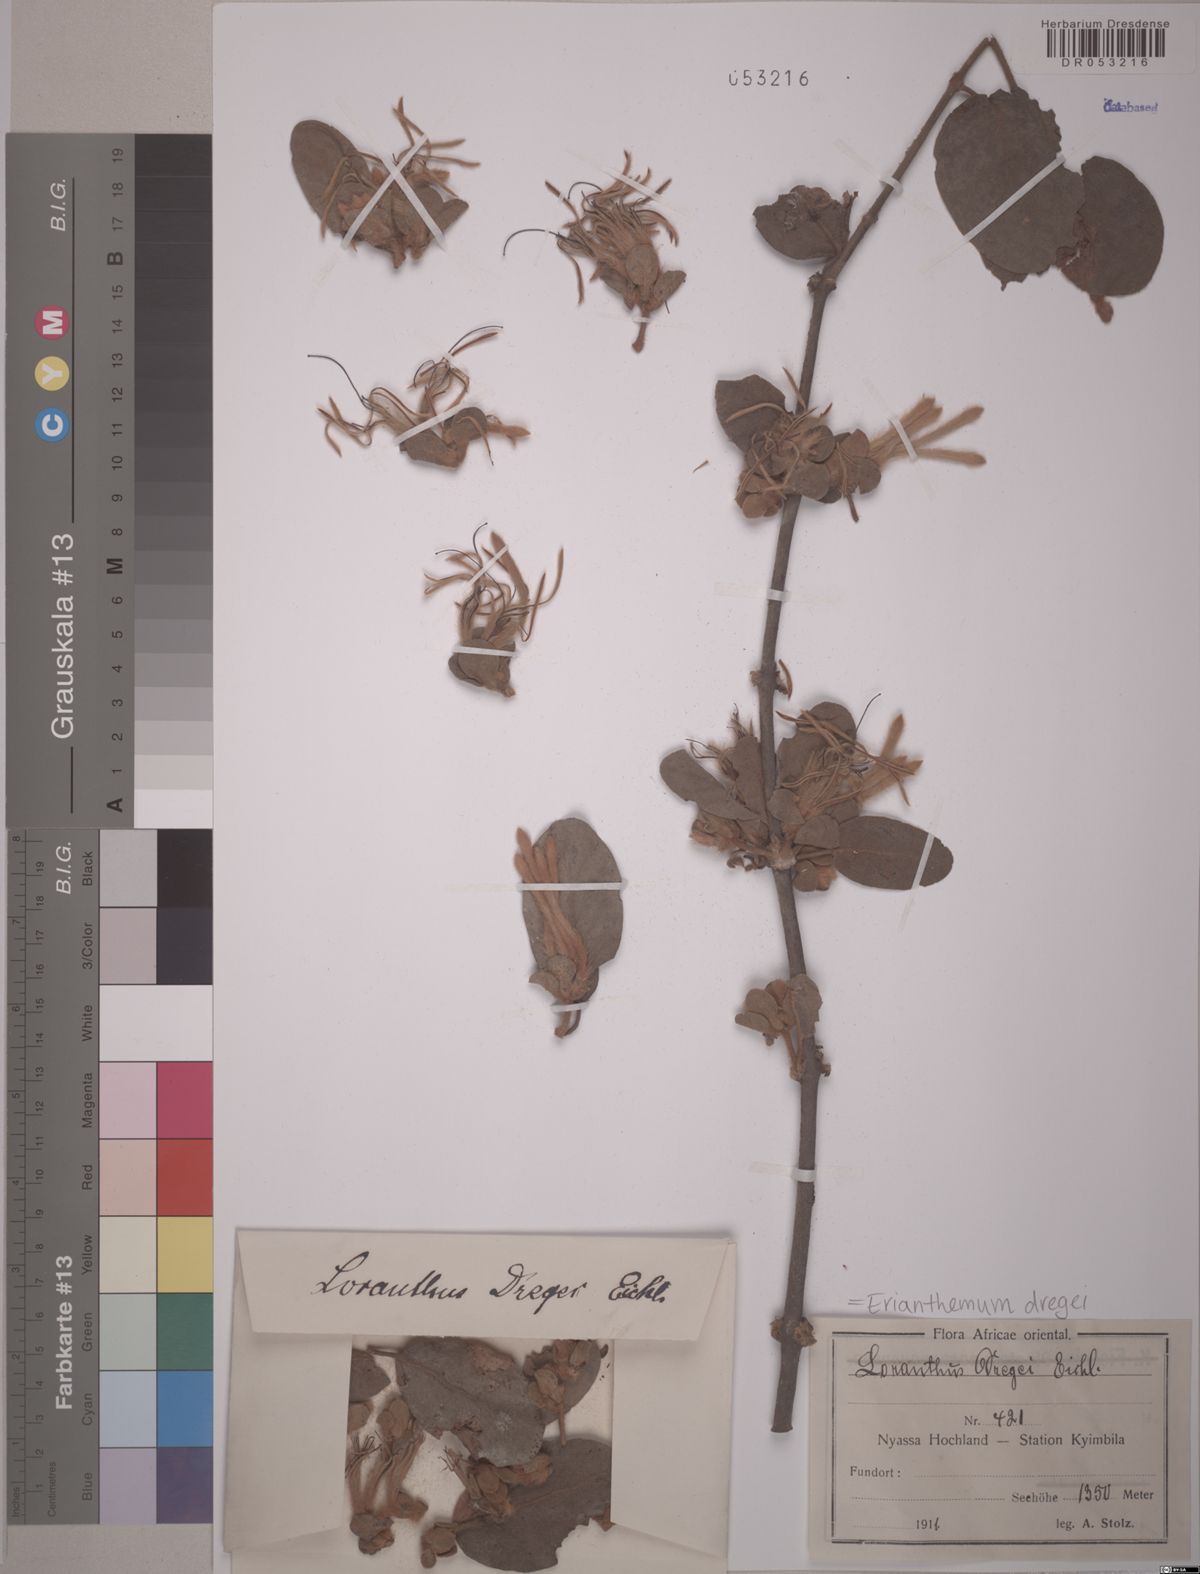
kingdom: Plantae
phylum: Tracheophyta
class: Magnoliopsida
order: Santalales
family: Loranthaceae
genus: Erianthemum
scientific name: Erianthemum dregei
